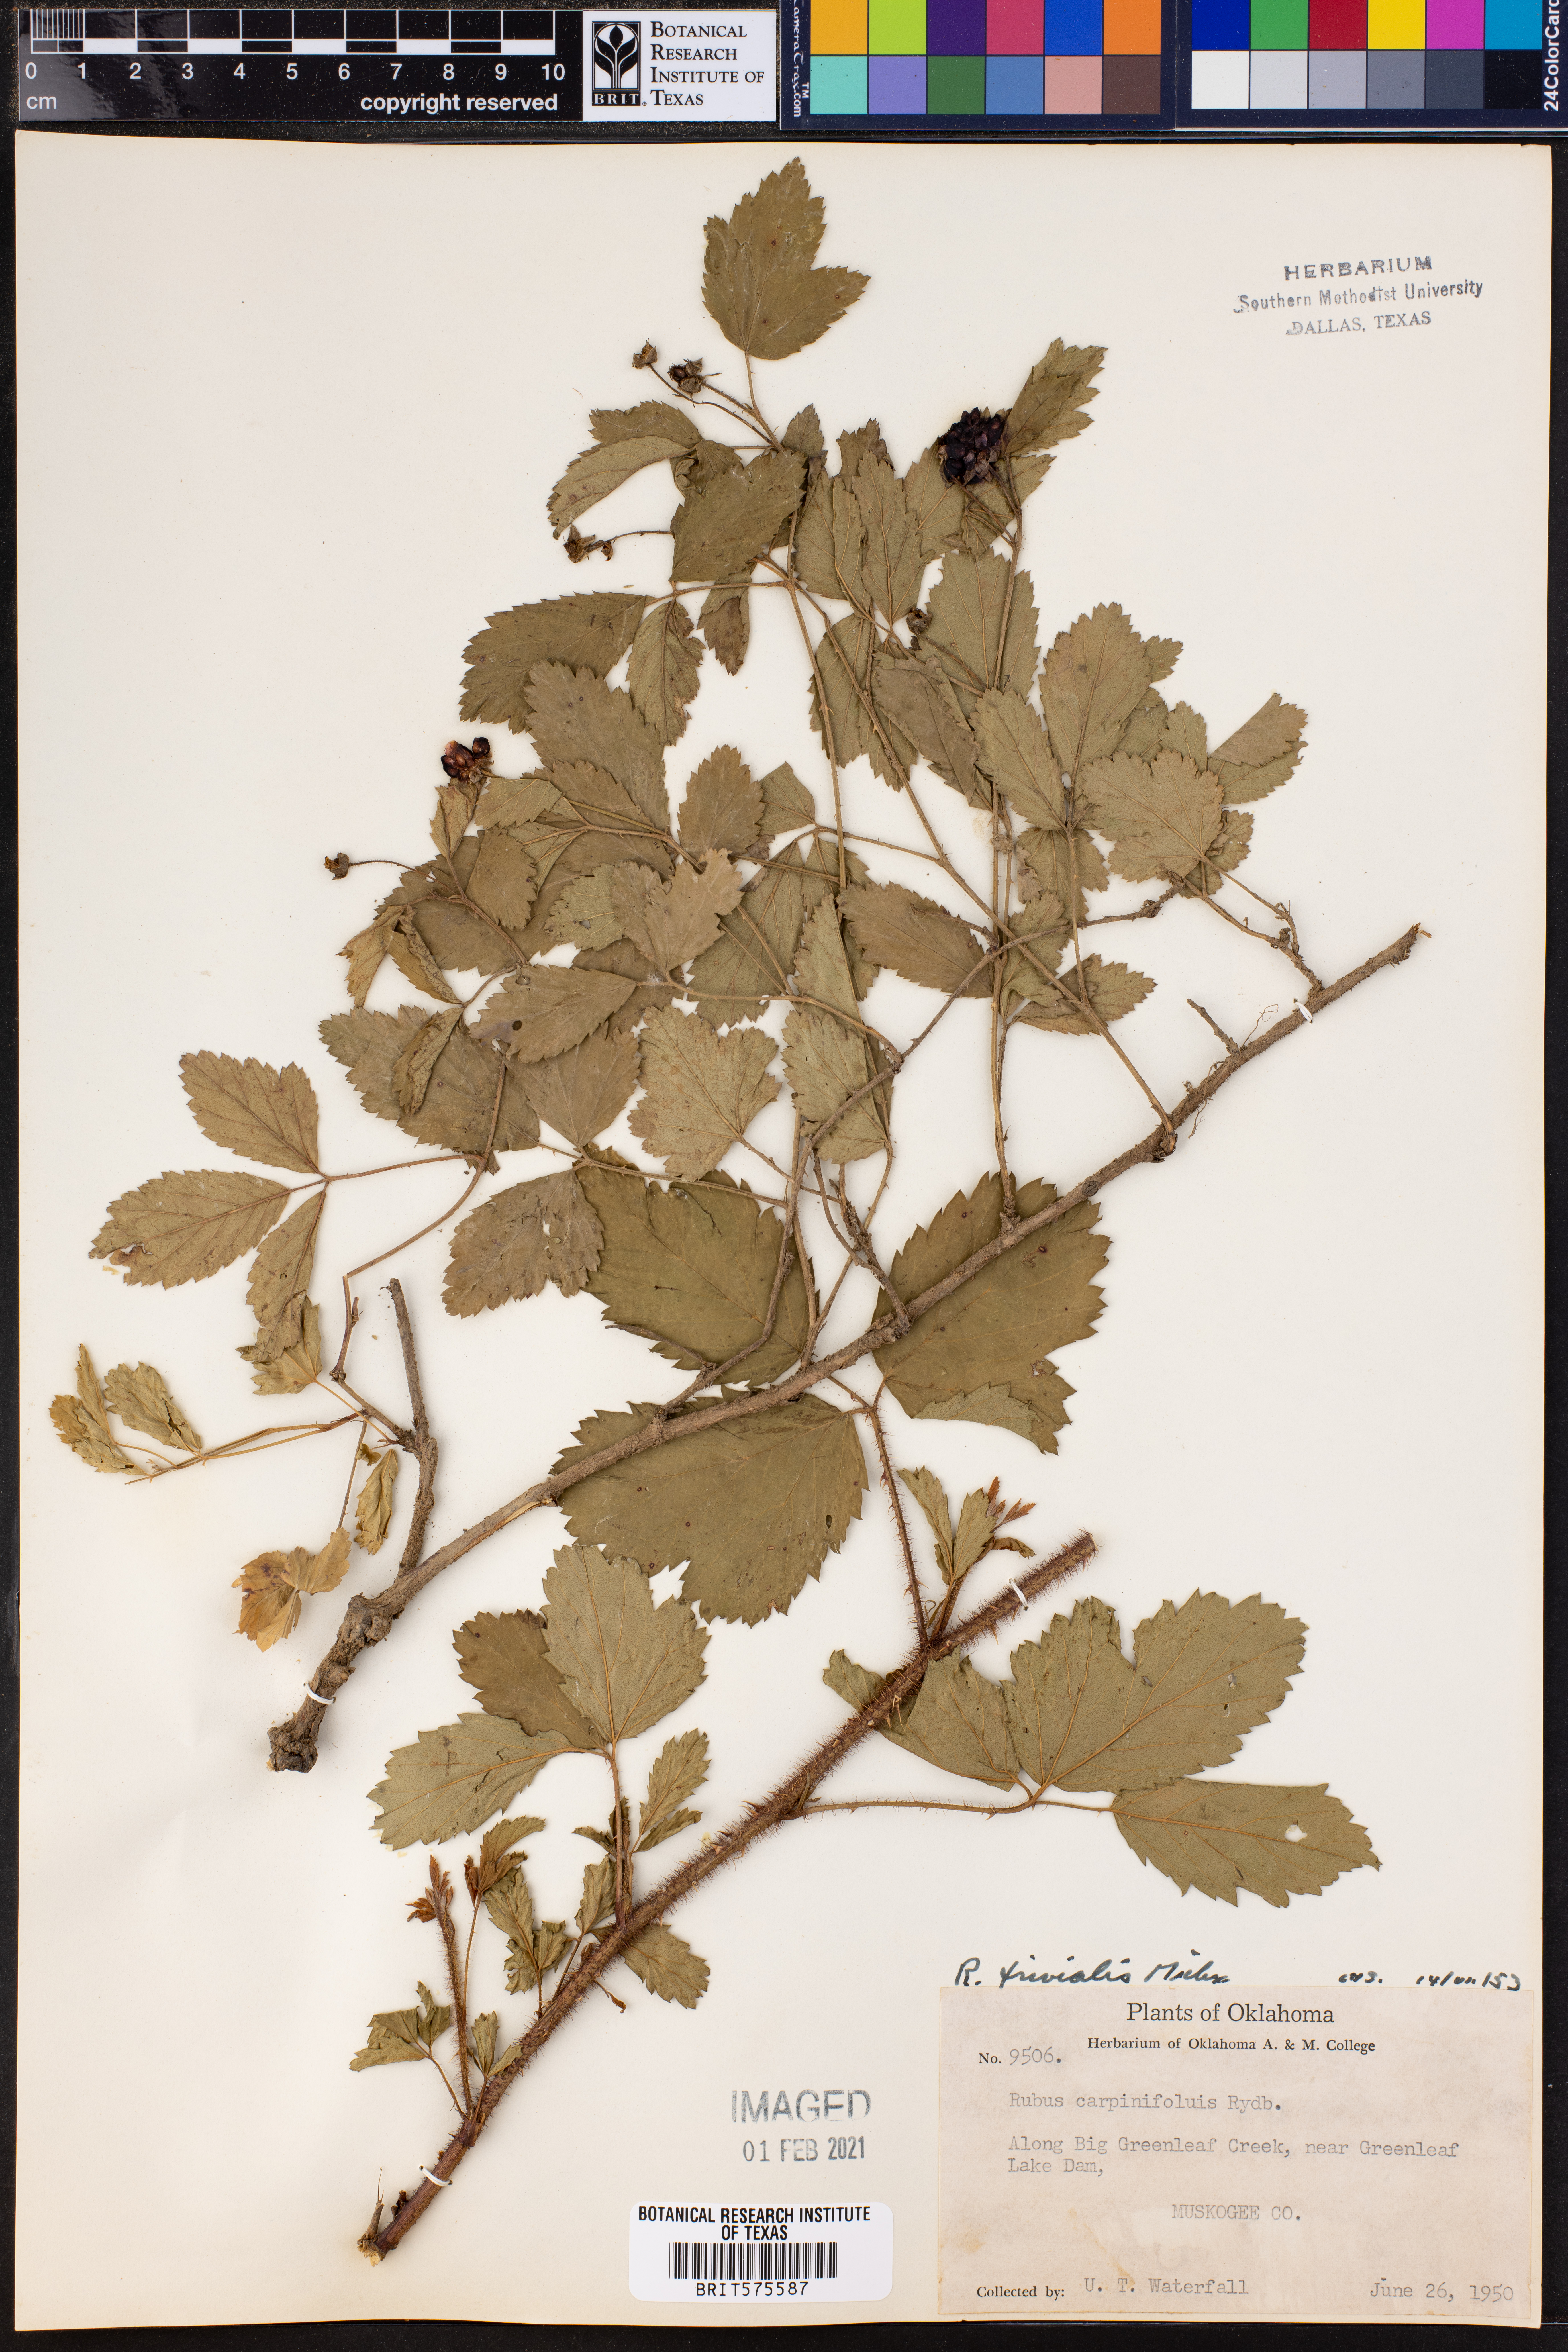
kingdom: Plantae
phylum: Tracheophyta
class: Magnoliopsida
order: Rosales
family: Rosaceae
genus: Rubus
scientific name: Rubus trivialis
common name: Southern dewberry
